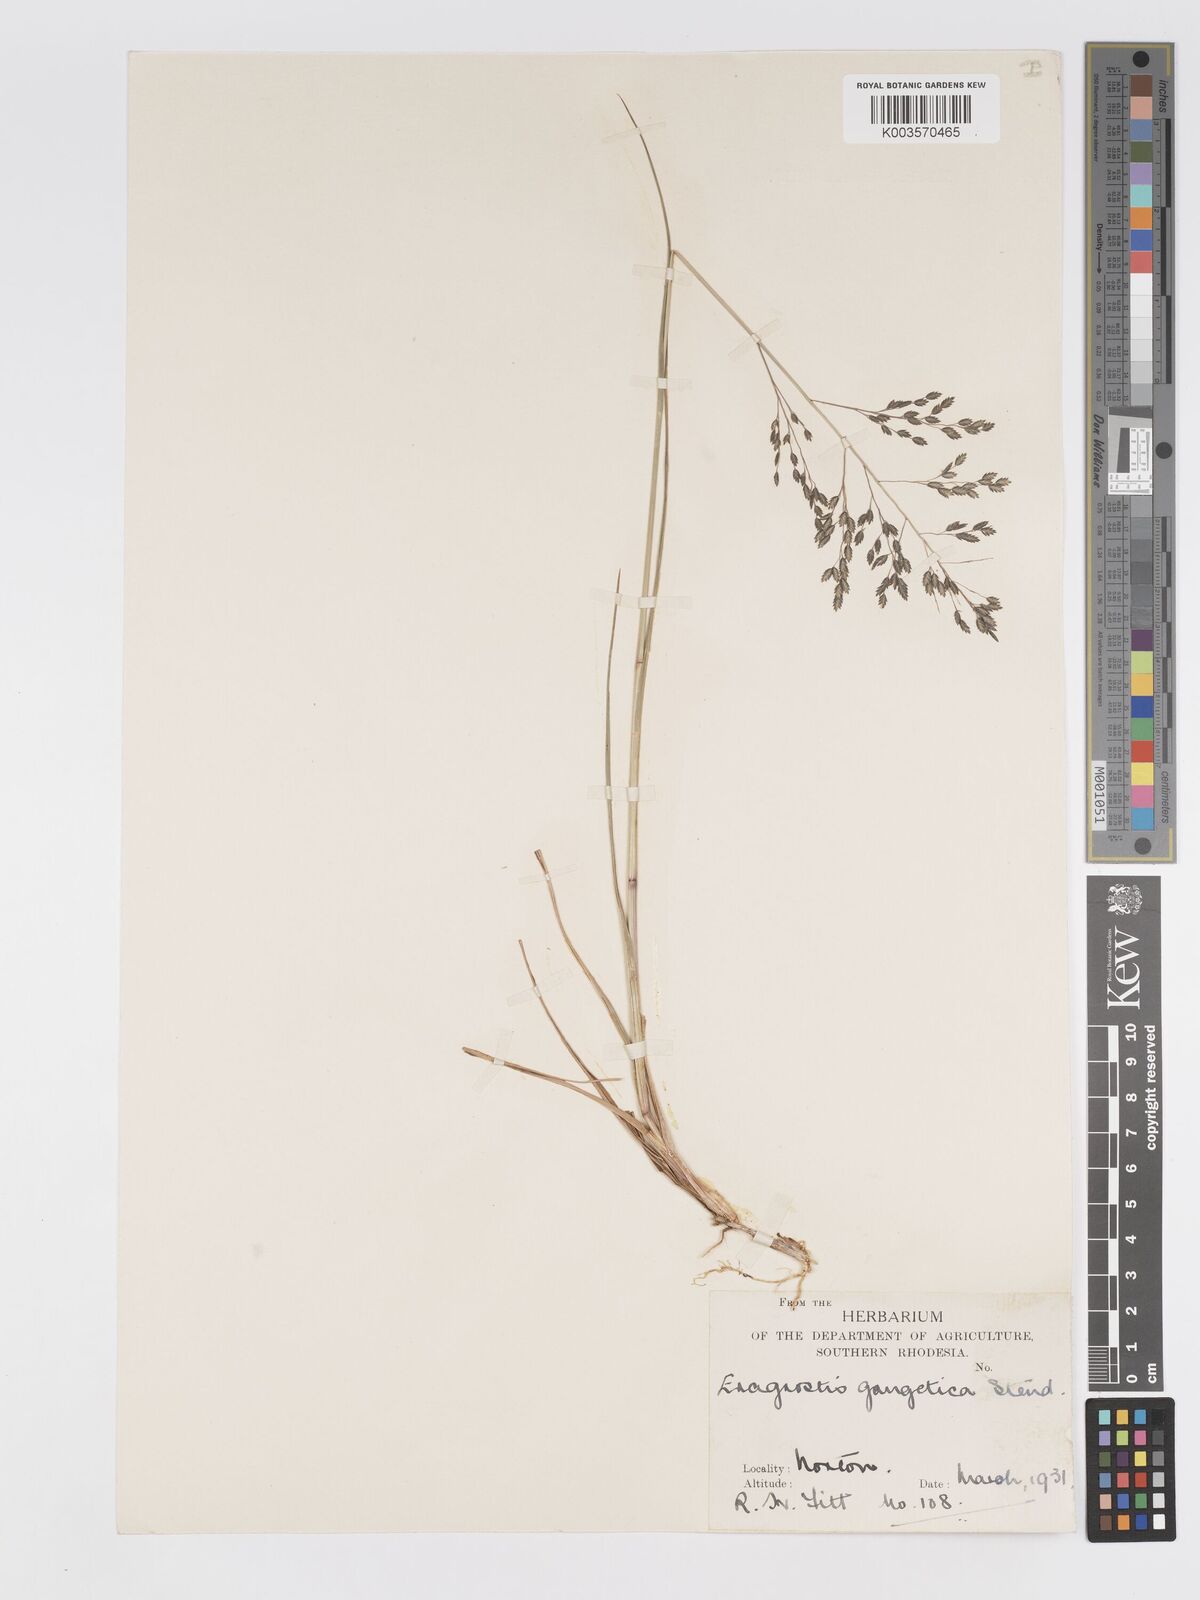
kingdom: Plantae
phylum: Tracheophyta
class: Liliopsida
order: Poales
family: Poaceae
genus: Eragrostis
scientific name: Eragrostis inamoena
